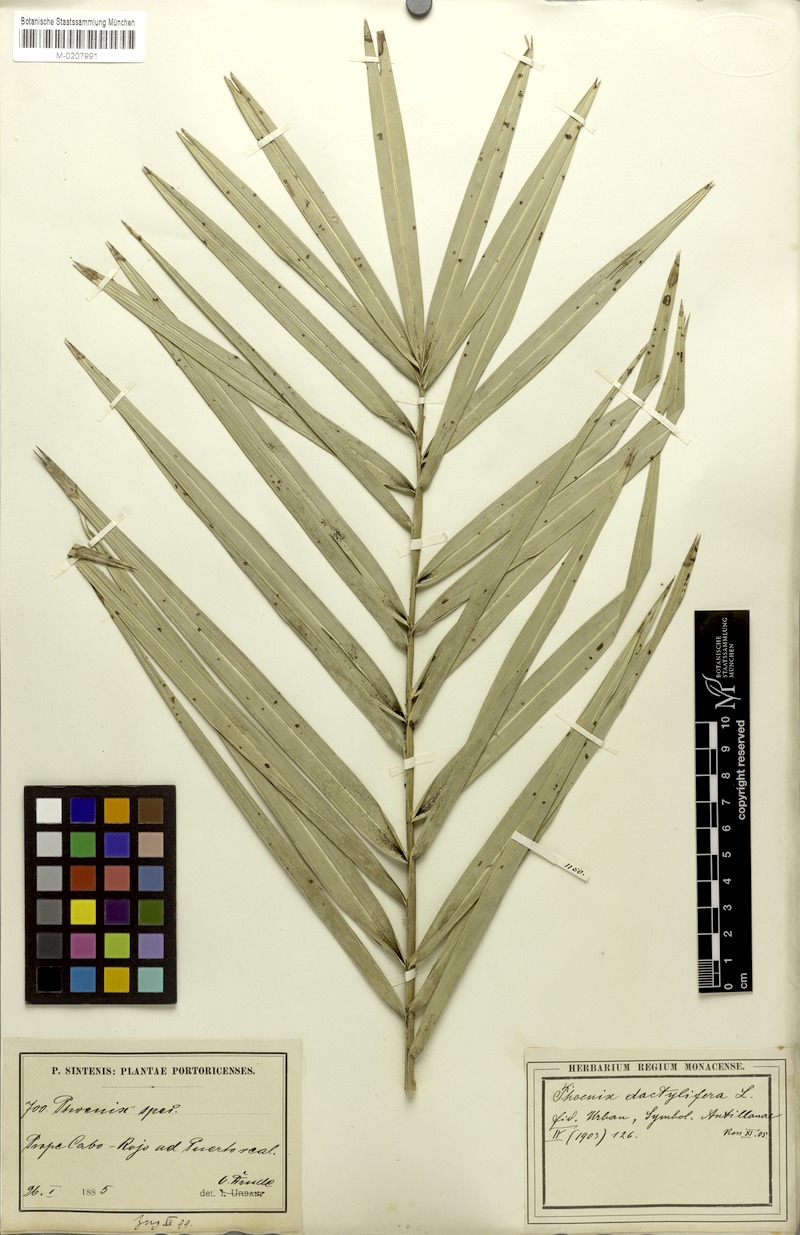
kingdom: Plantae
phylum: Tracheophyta
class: Liliopsida
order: Arecales
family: Arecaceae
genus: Phoenix
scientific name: Phoenix dactylifera
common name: Date palm
